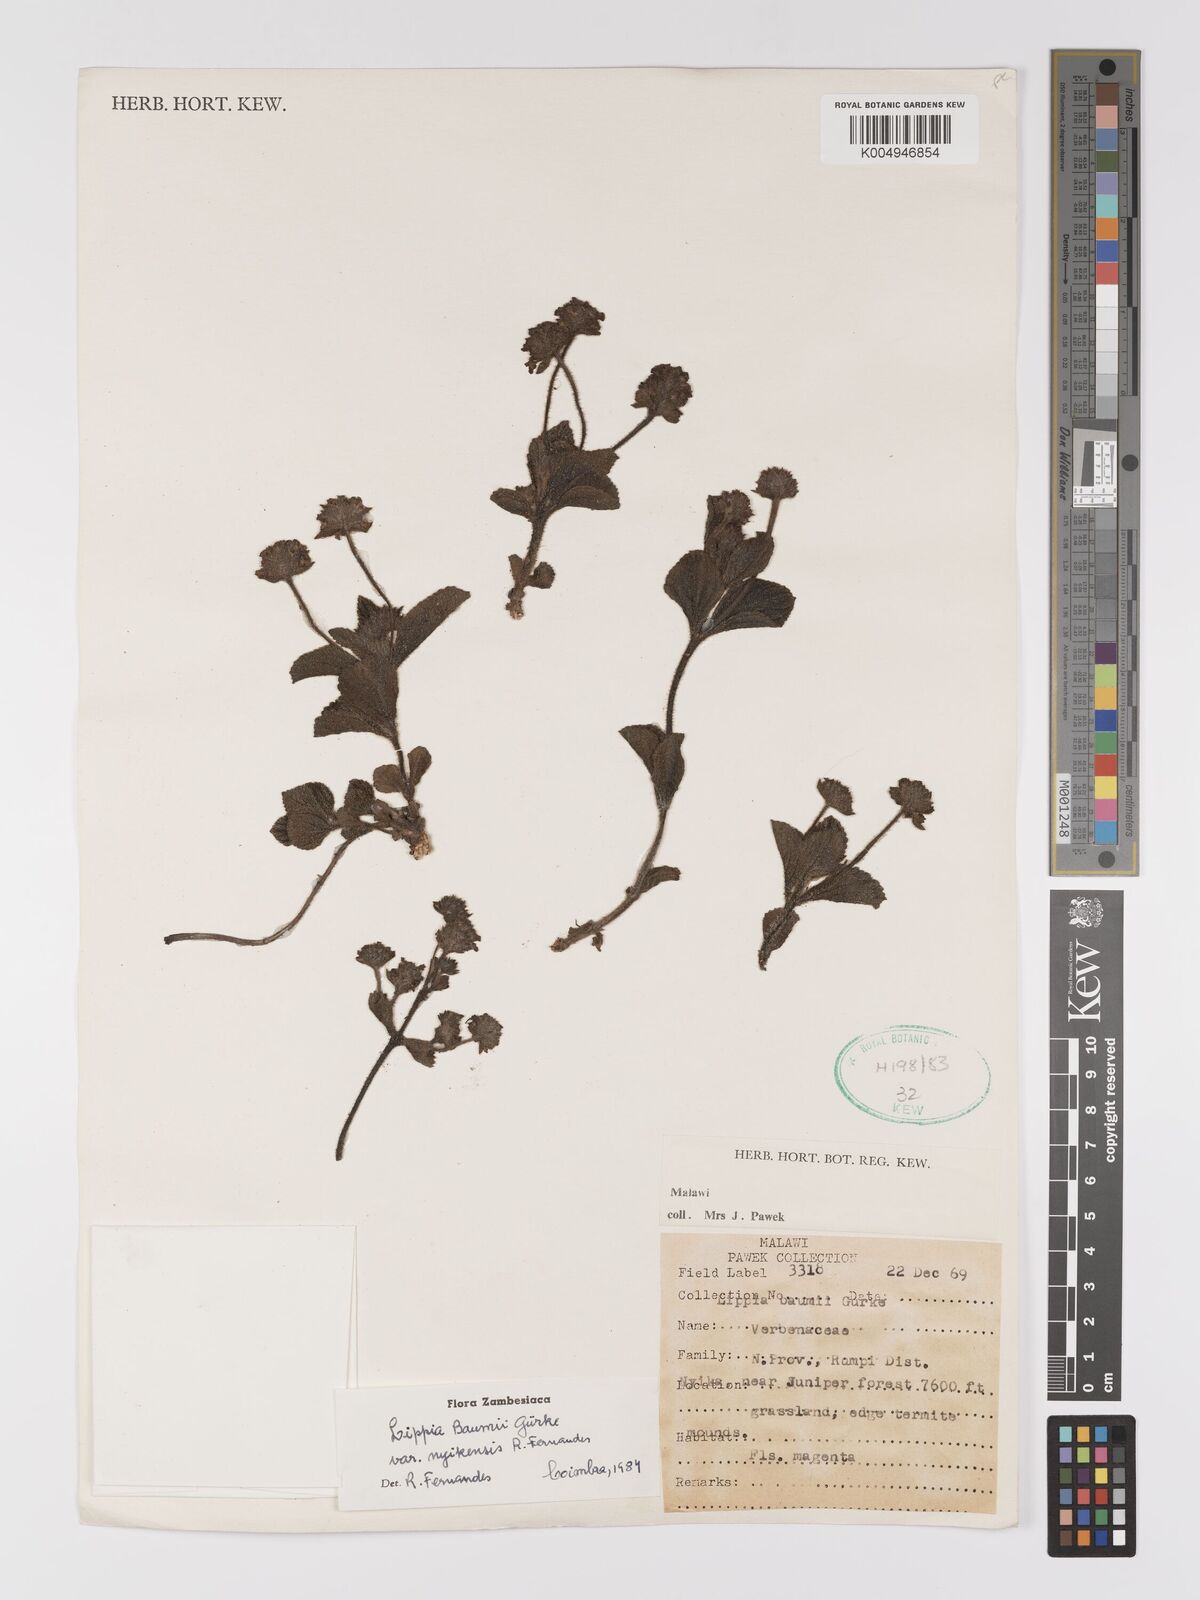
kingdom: Plantae
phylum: Tracheophyta
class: Magnoliopsida
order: Lamiales
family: Verbenaceae
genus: Lippia
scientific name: Lippia praecox
